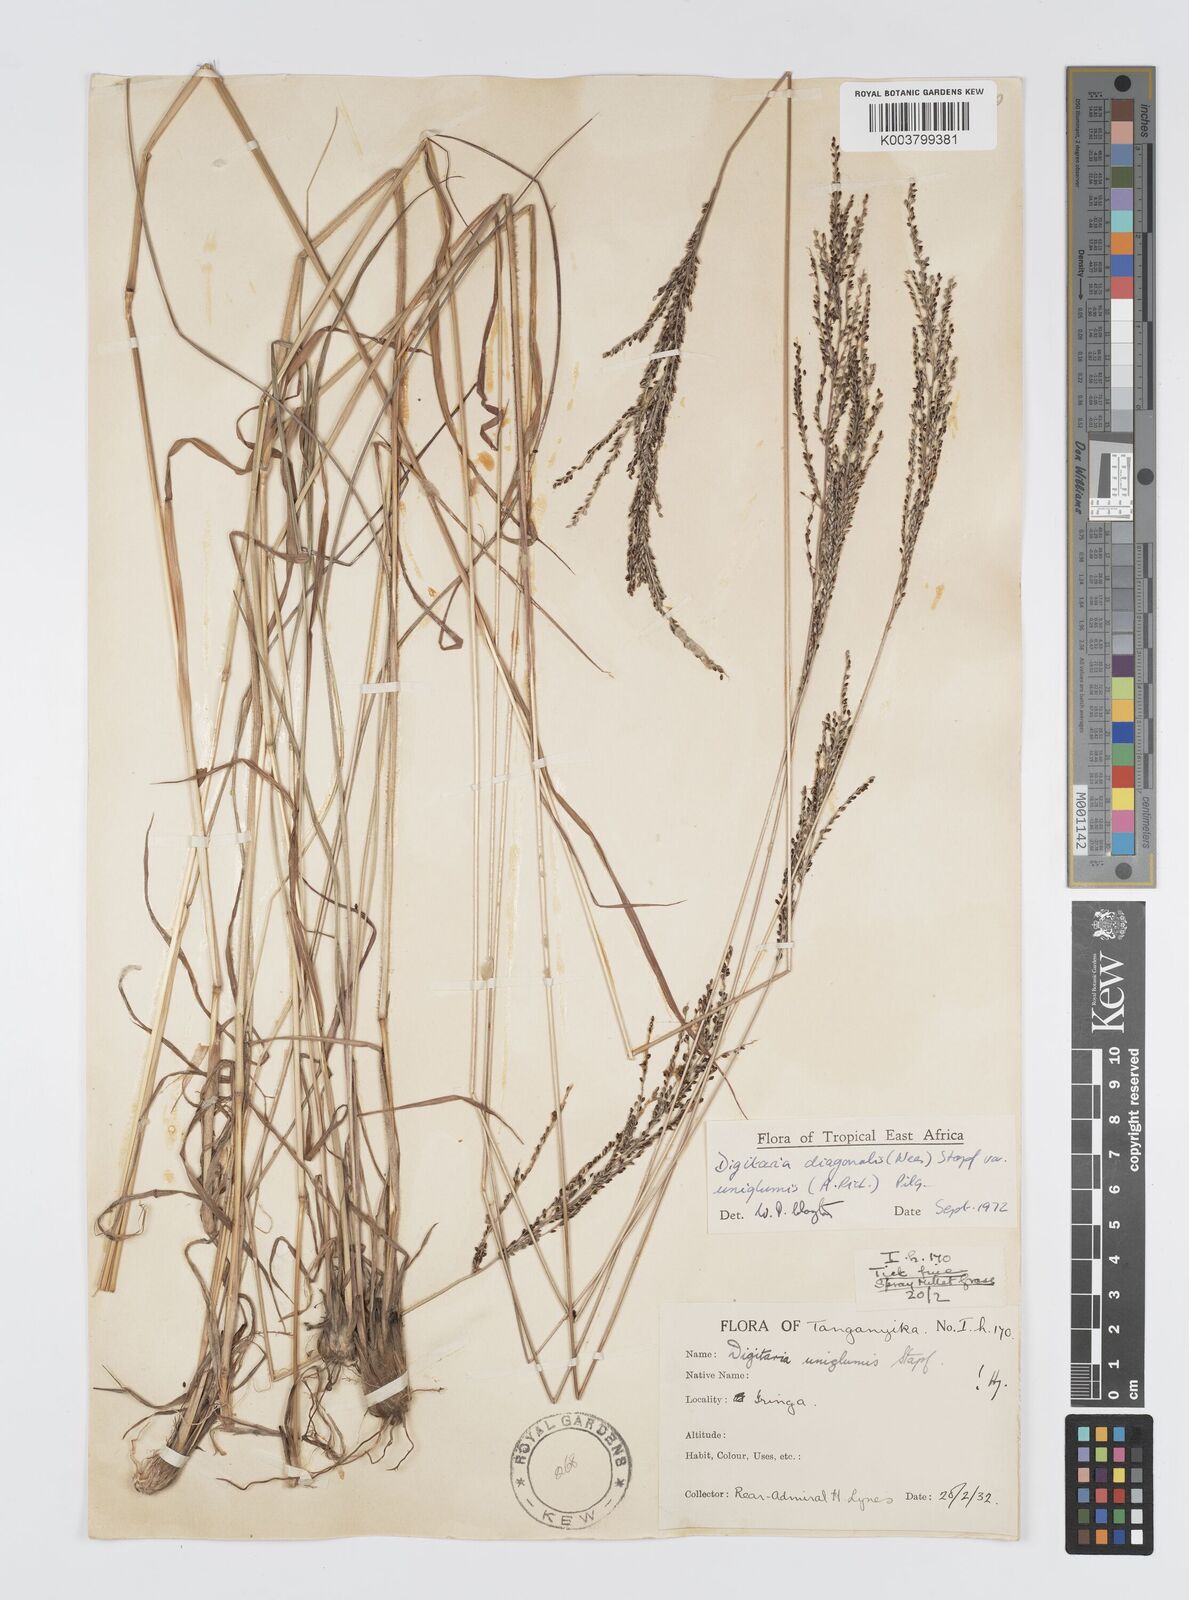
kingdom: Plantae
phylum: Tracheophyta
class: Liliopsida
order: Poales
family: Poaceae
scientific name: Poaceae
